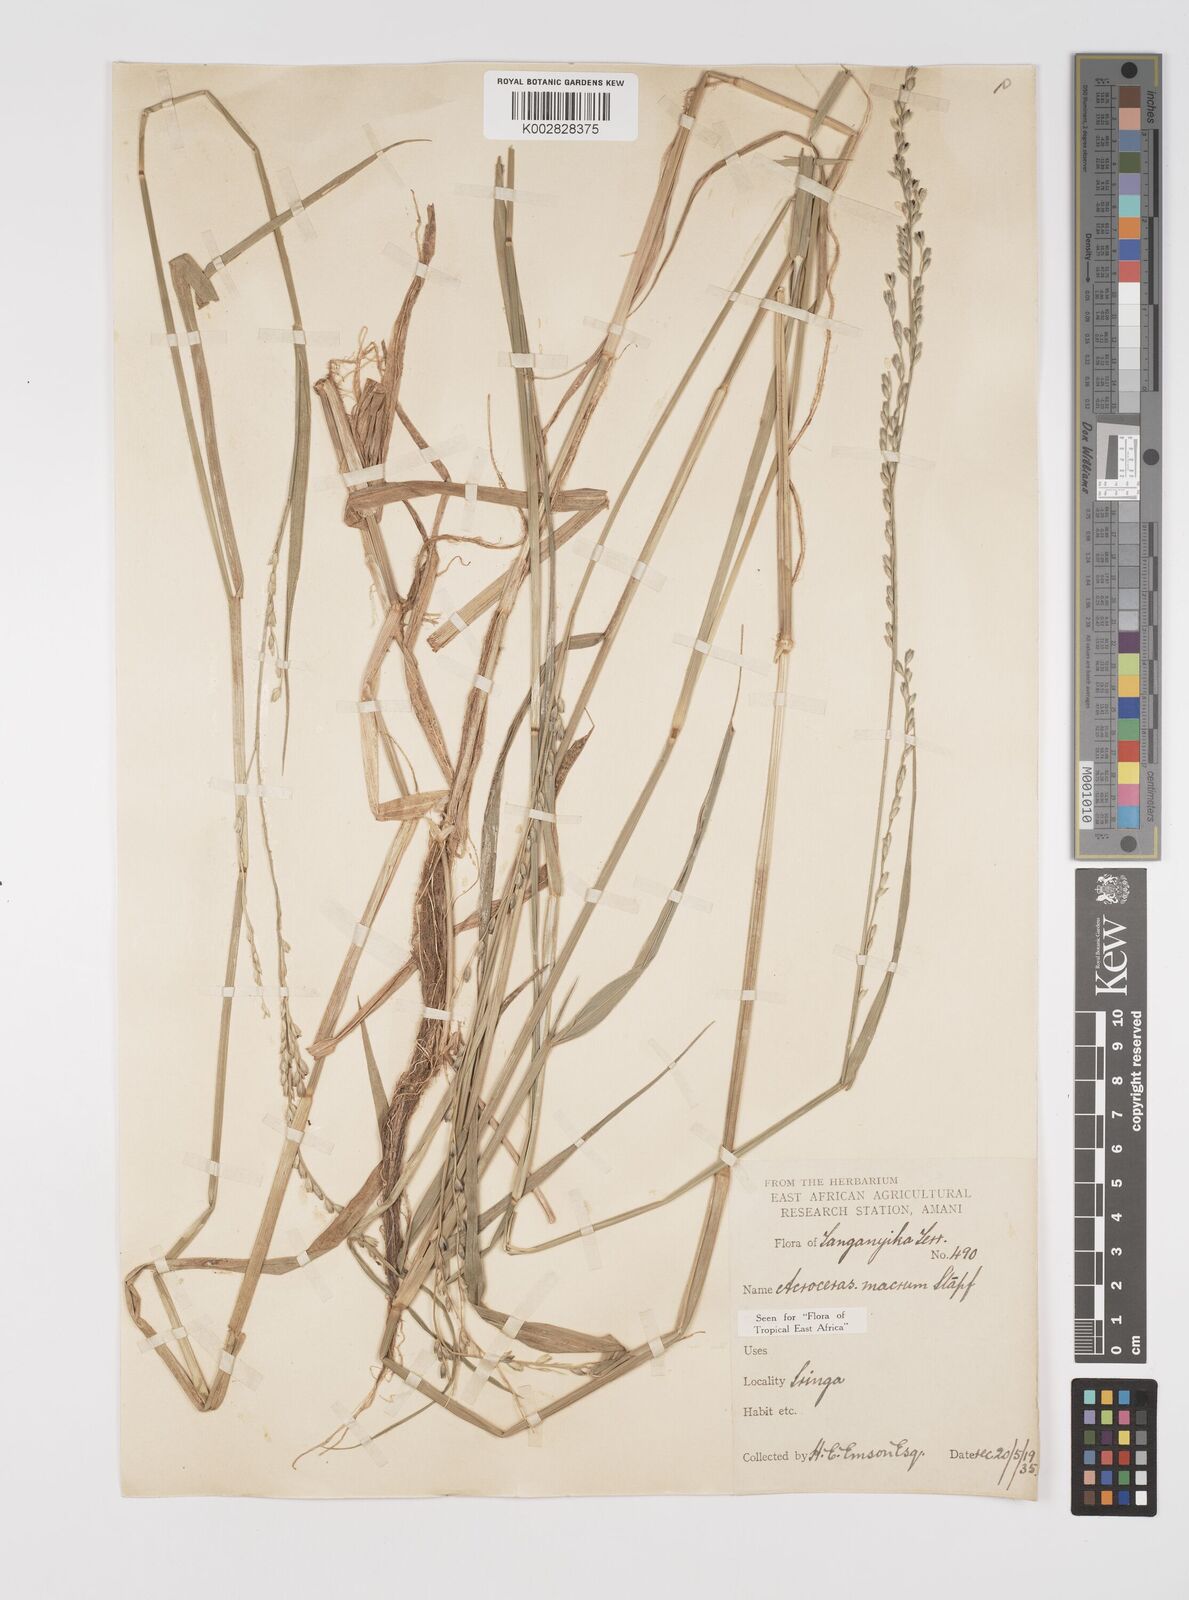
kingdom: Plantae
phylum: Tracheophyta
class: Liliopsida
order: Poales
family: Poaceae
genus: Acroceras
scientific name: Acroceras macrum
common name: Nyl grass
